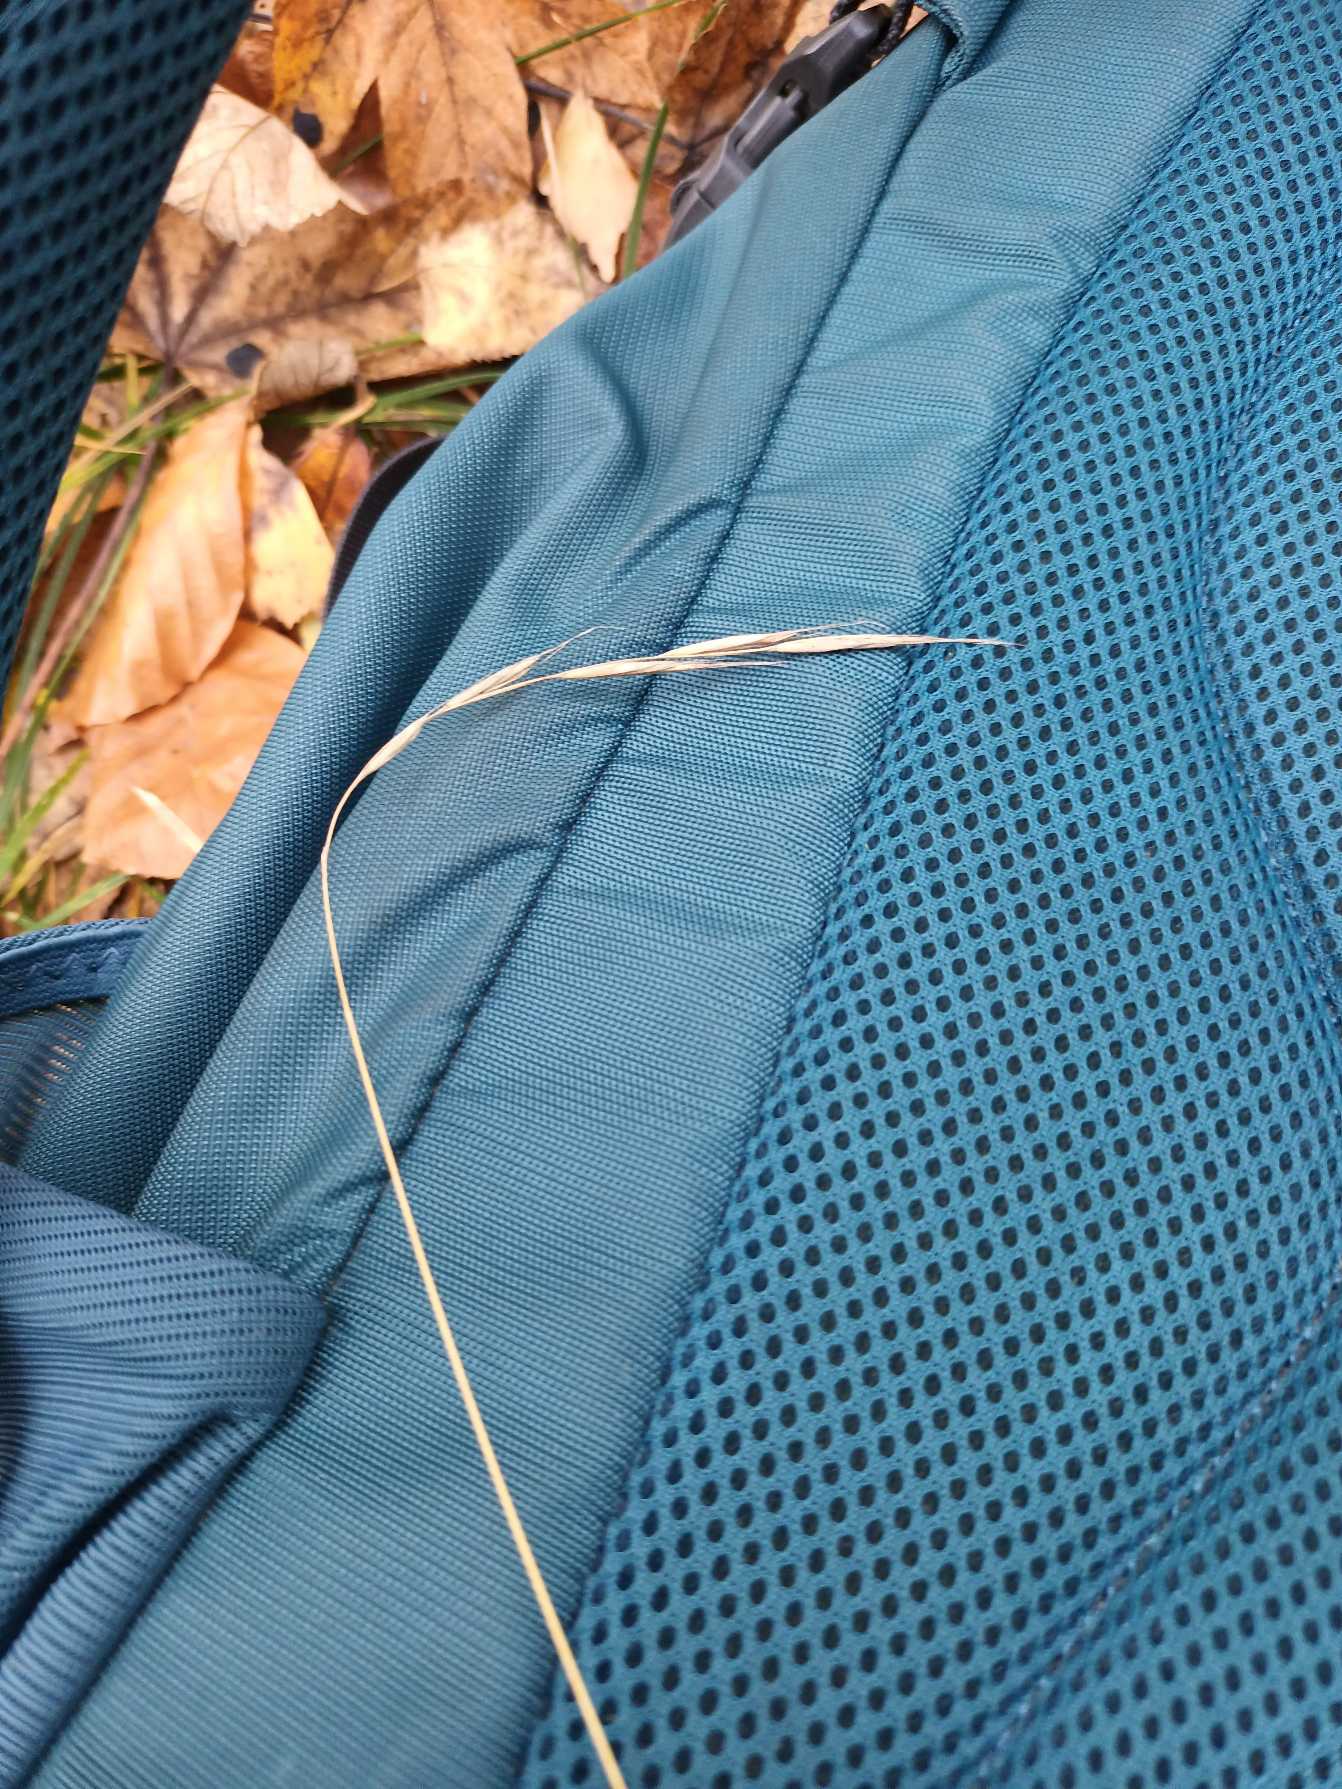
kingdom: Plantae
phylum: Tracheophyta
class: Liliopsida
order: Poales
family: Poaceae
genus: Brachypodium
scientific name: Brachypodium sylvaticum
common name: Skov-stilkaks
